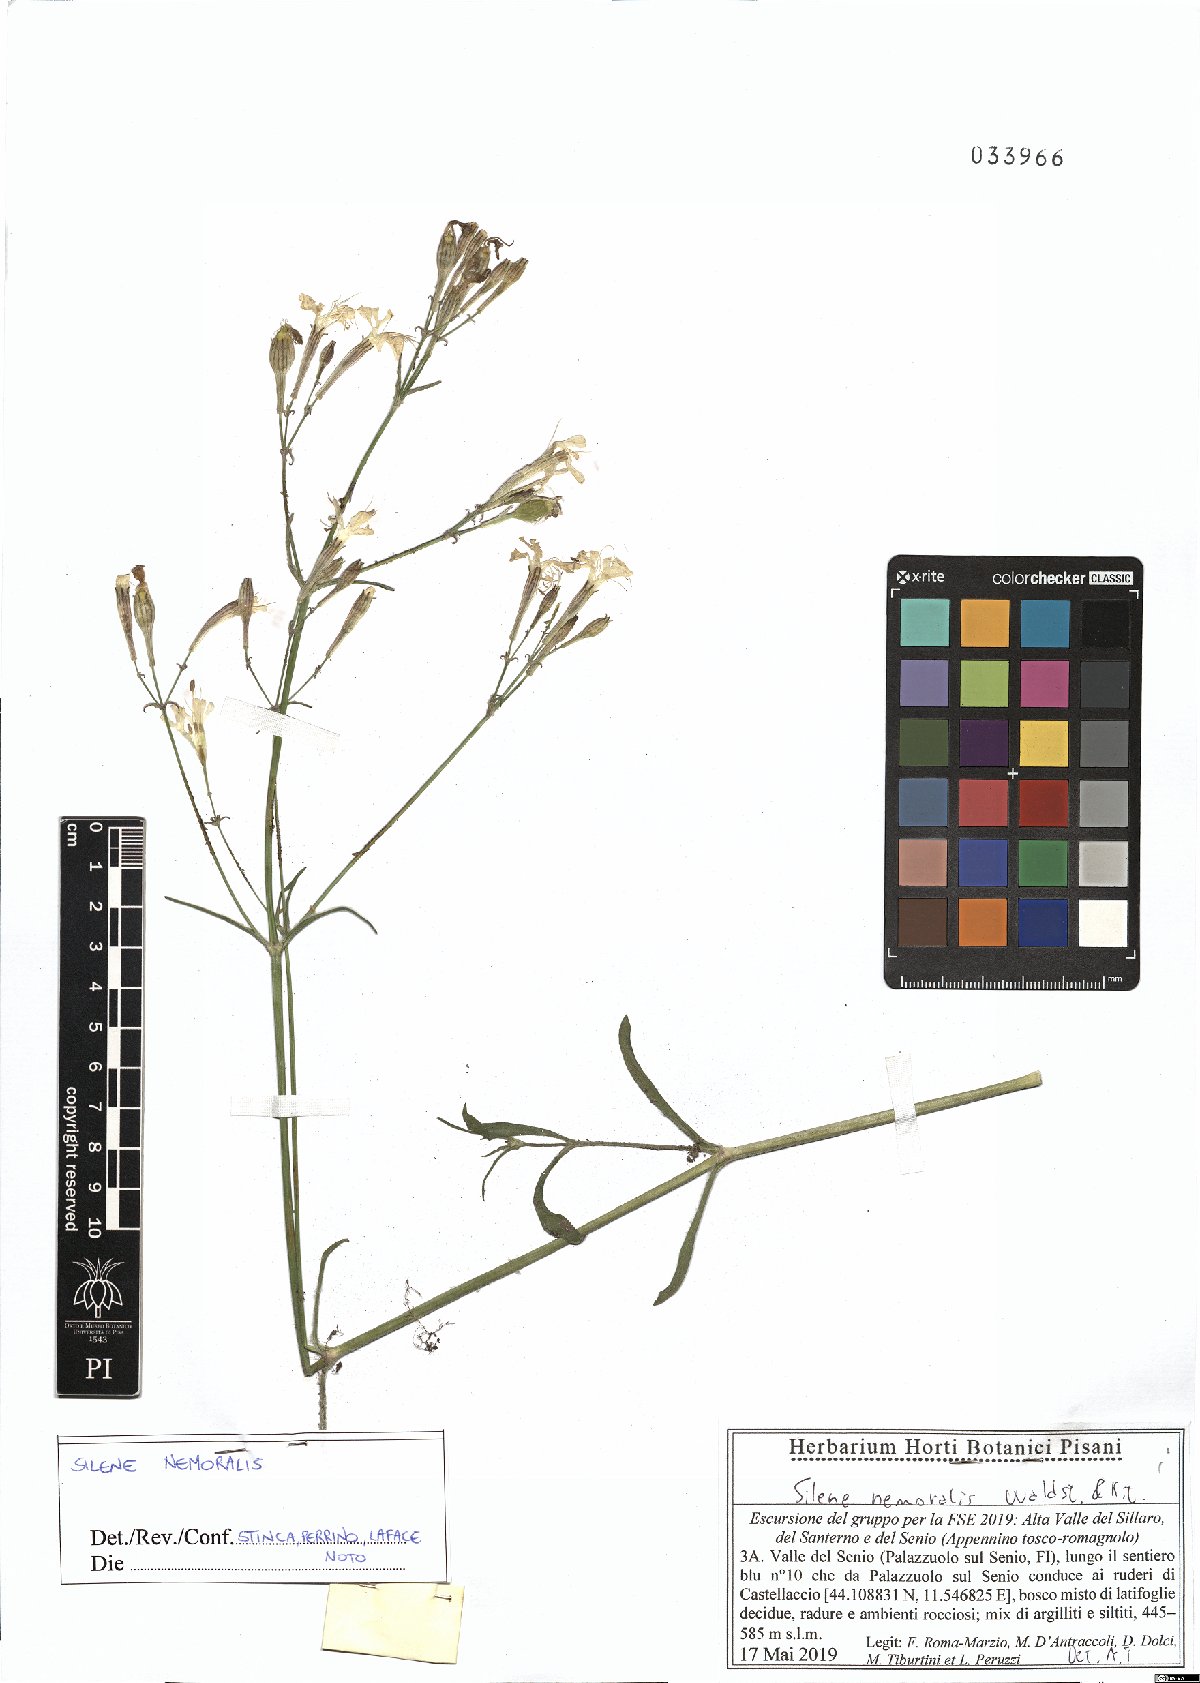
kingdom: Plantae
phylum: Tracheophyta
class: Magnoliopsida
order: Caryophyllales
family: Caryophyllaceae
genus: Silene
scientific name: Silene nemoralis
